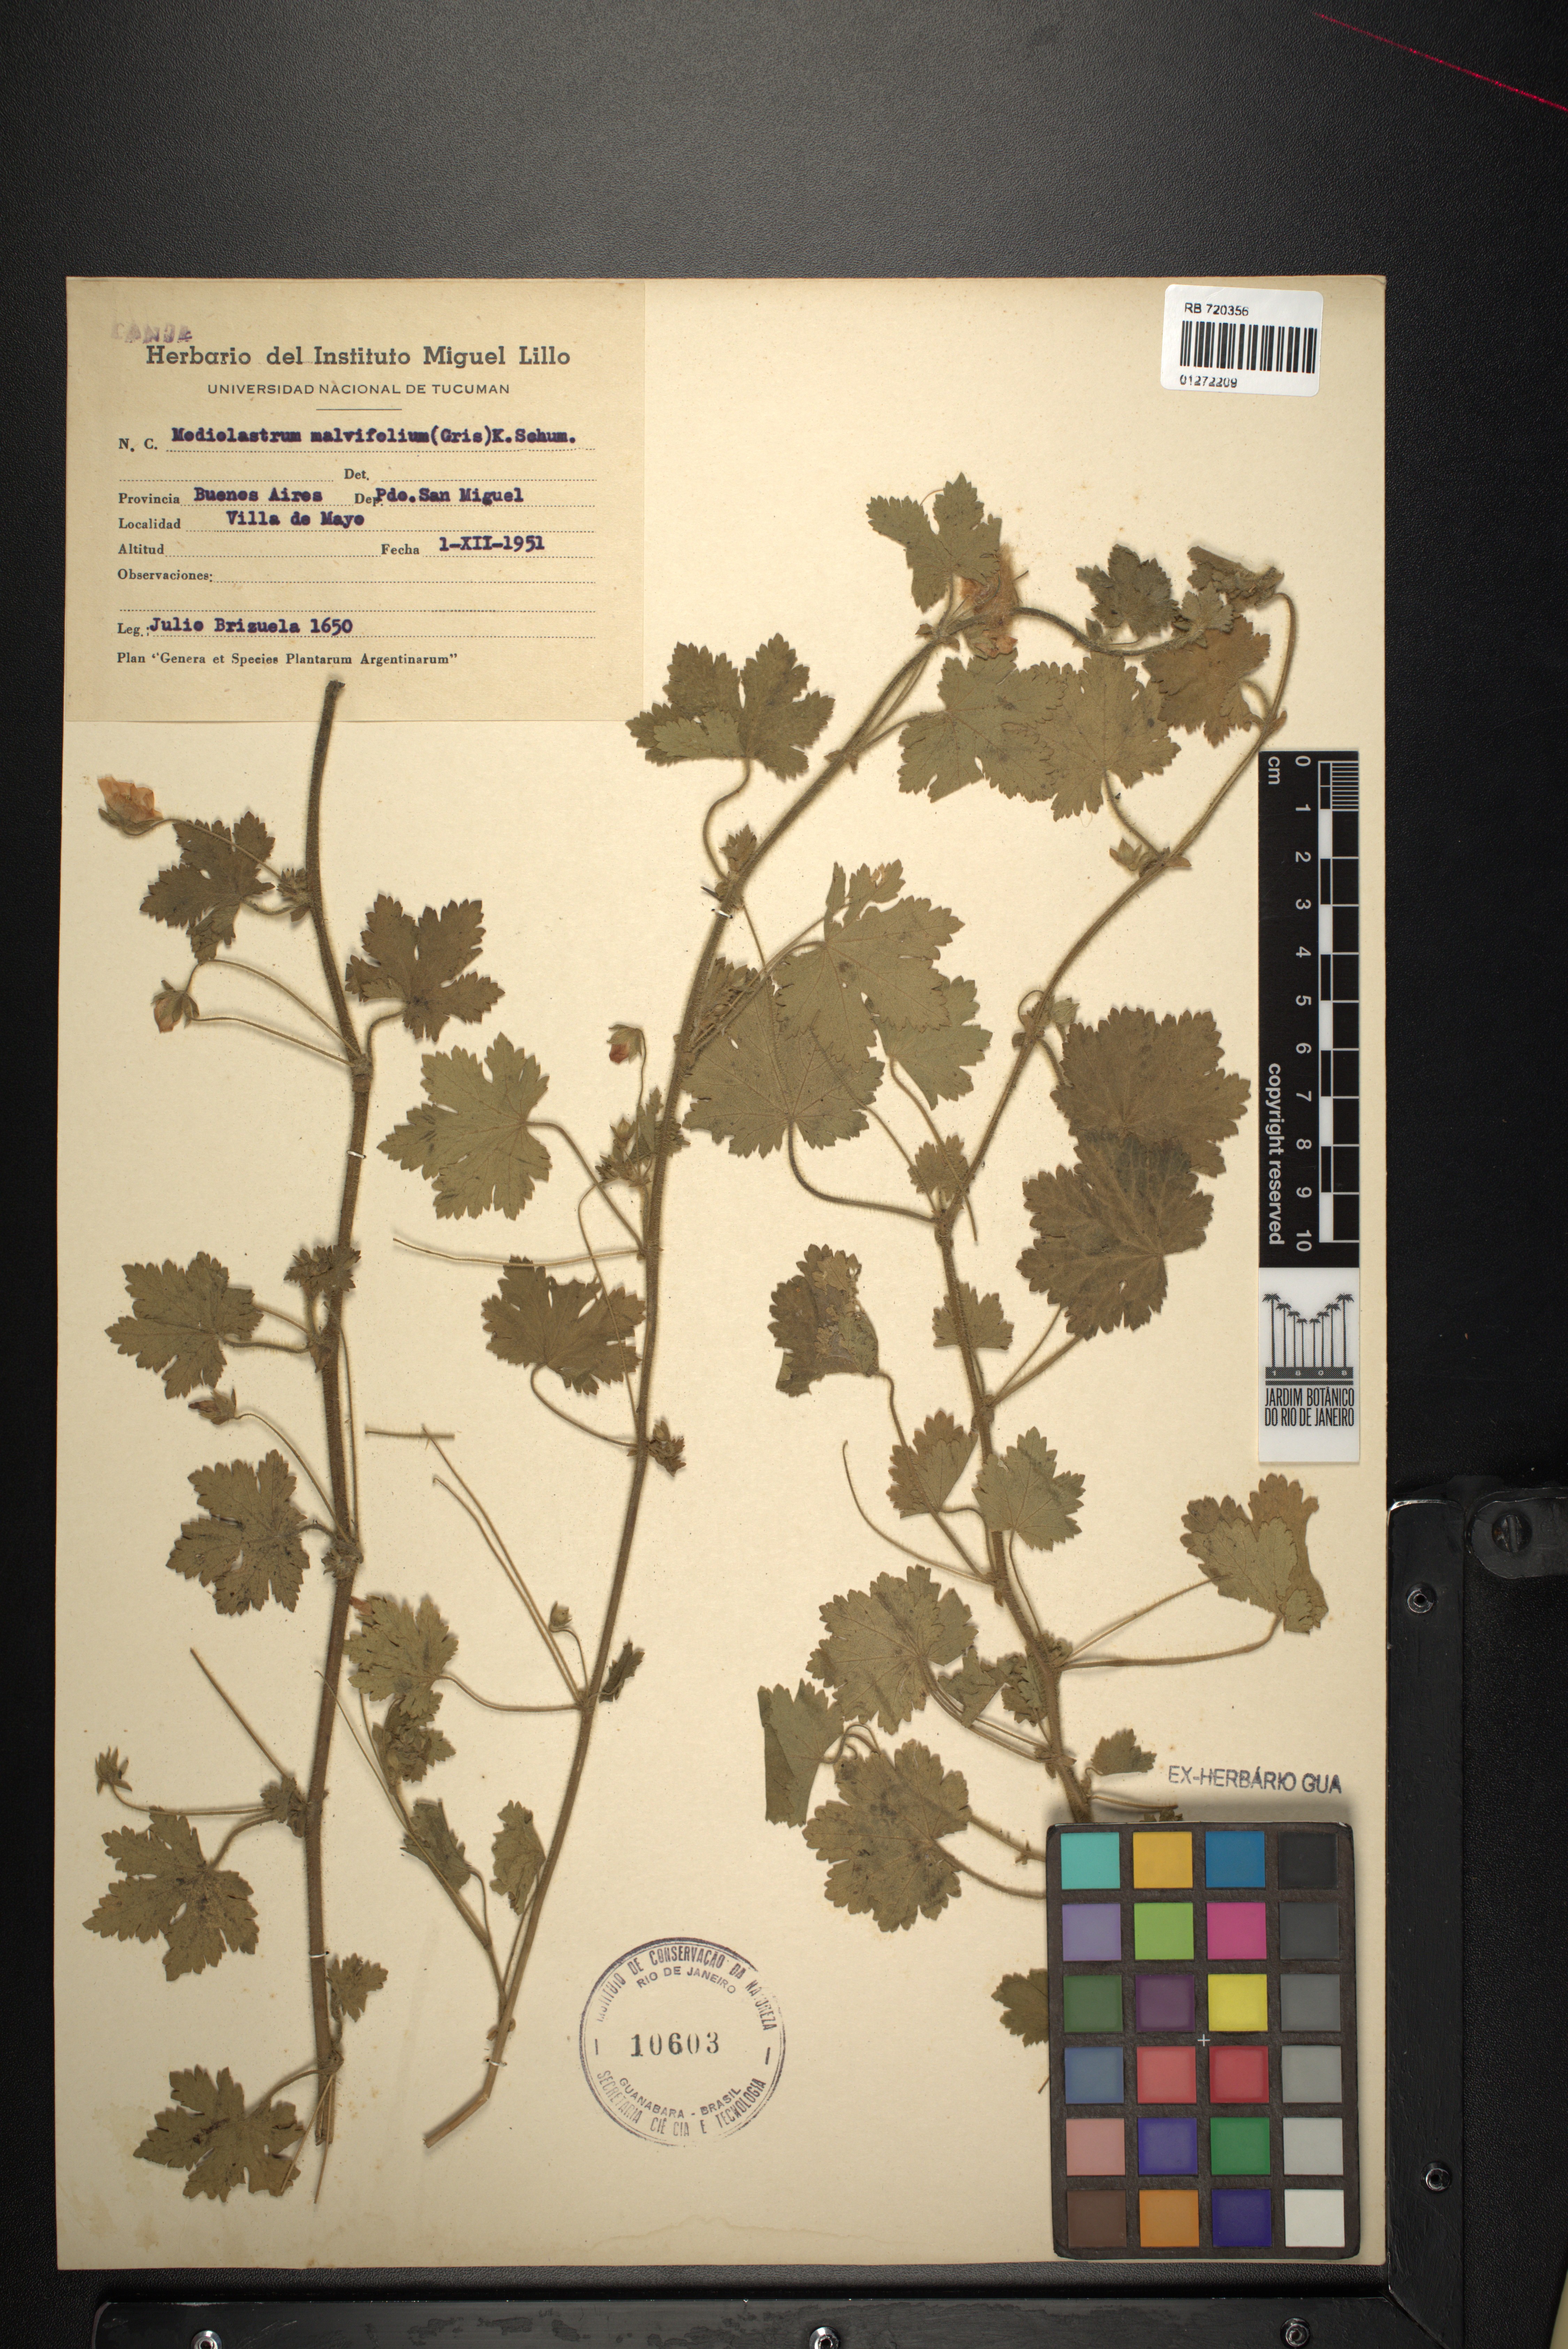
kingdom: Plantae
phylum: Tracheophyta
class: Magnoliopsida
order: Malvales
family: Malvaceae
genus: Modiolastrum
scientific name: Modiolastrum malvifolium
